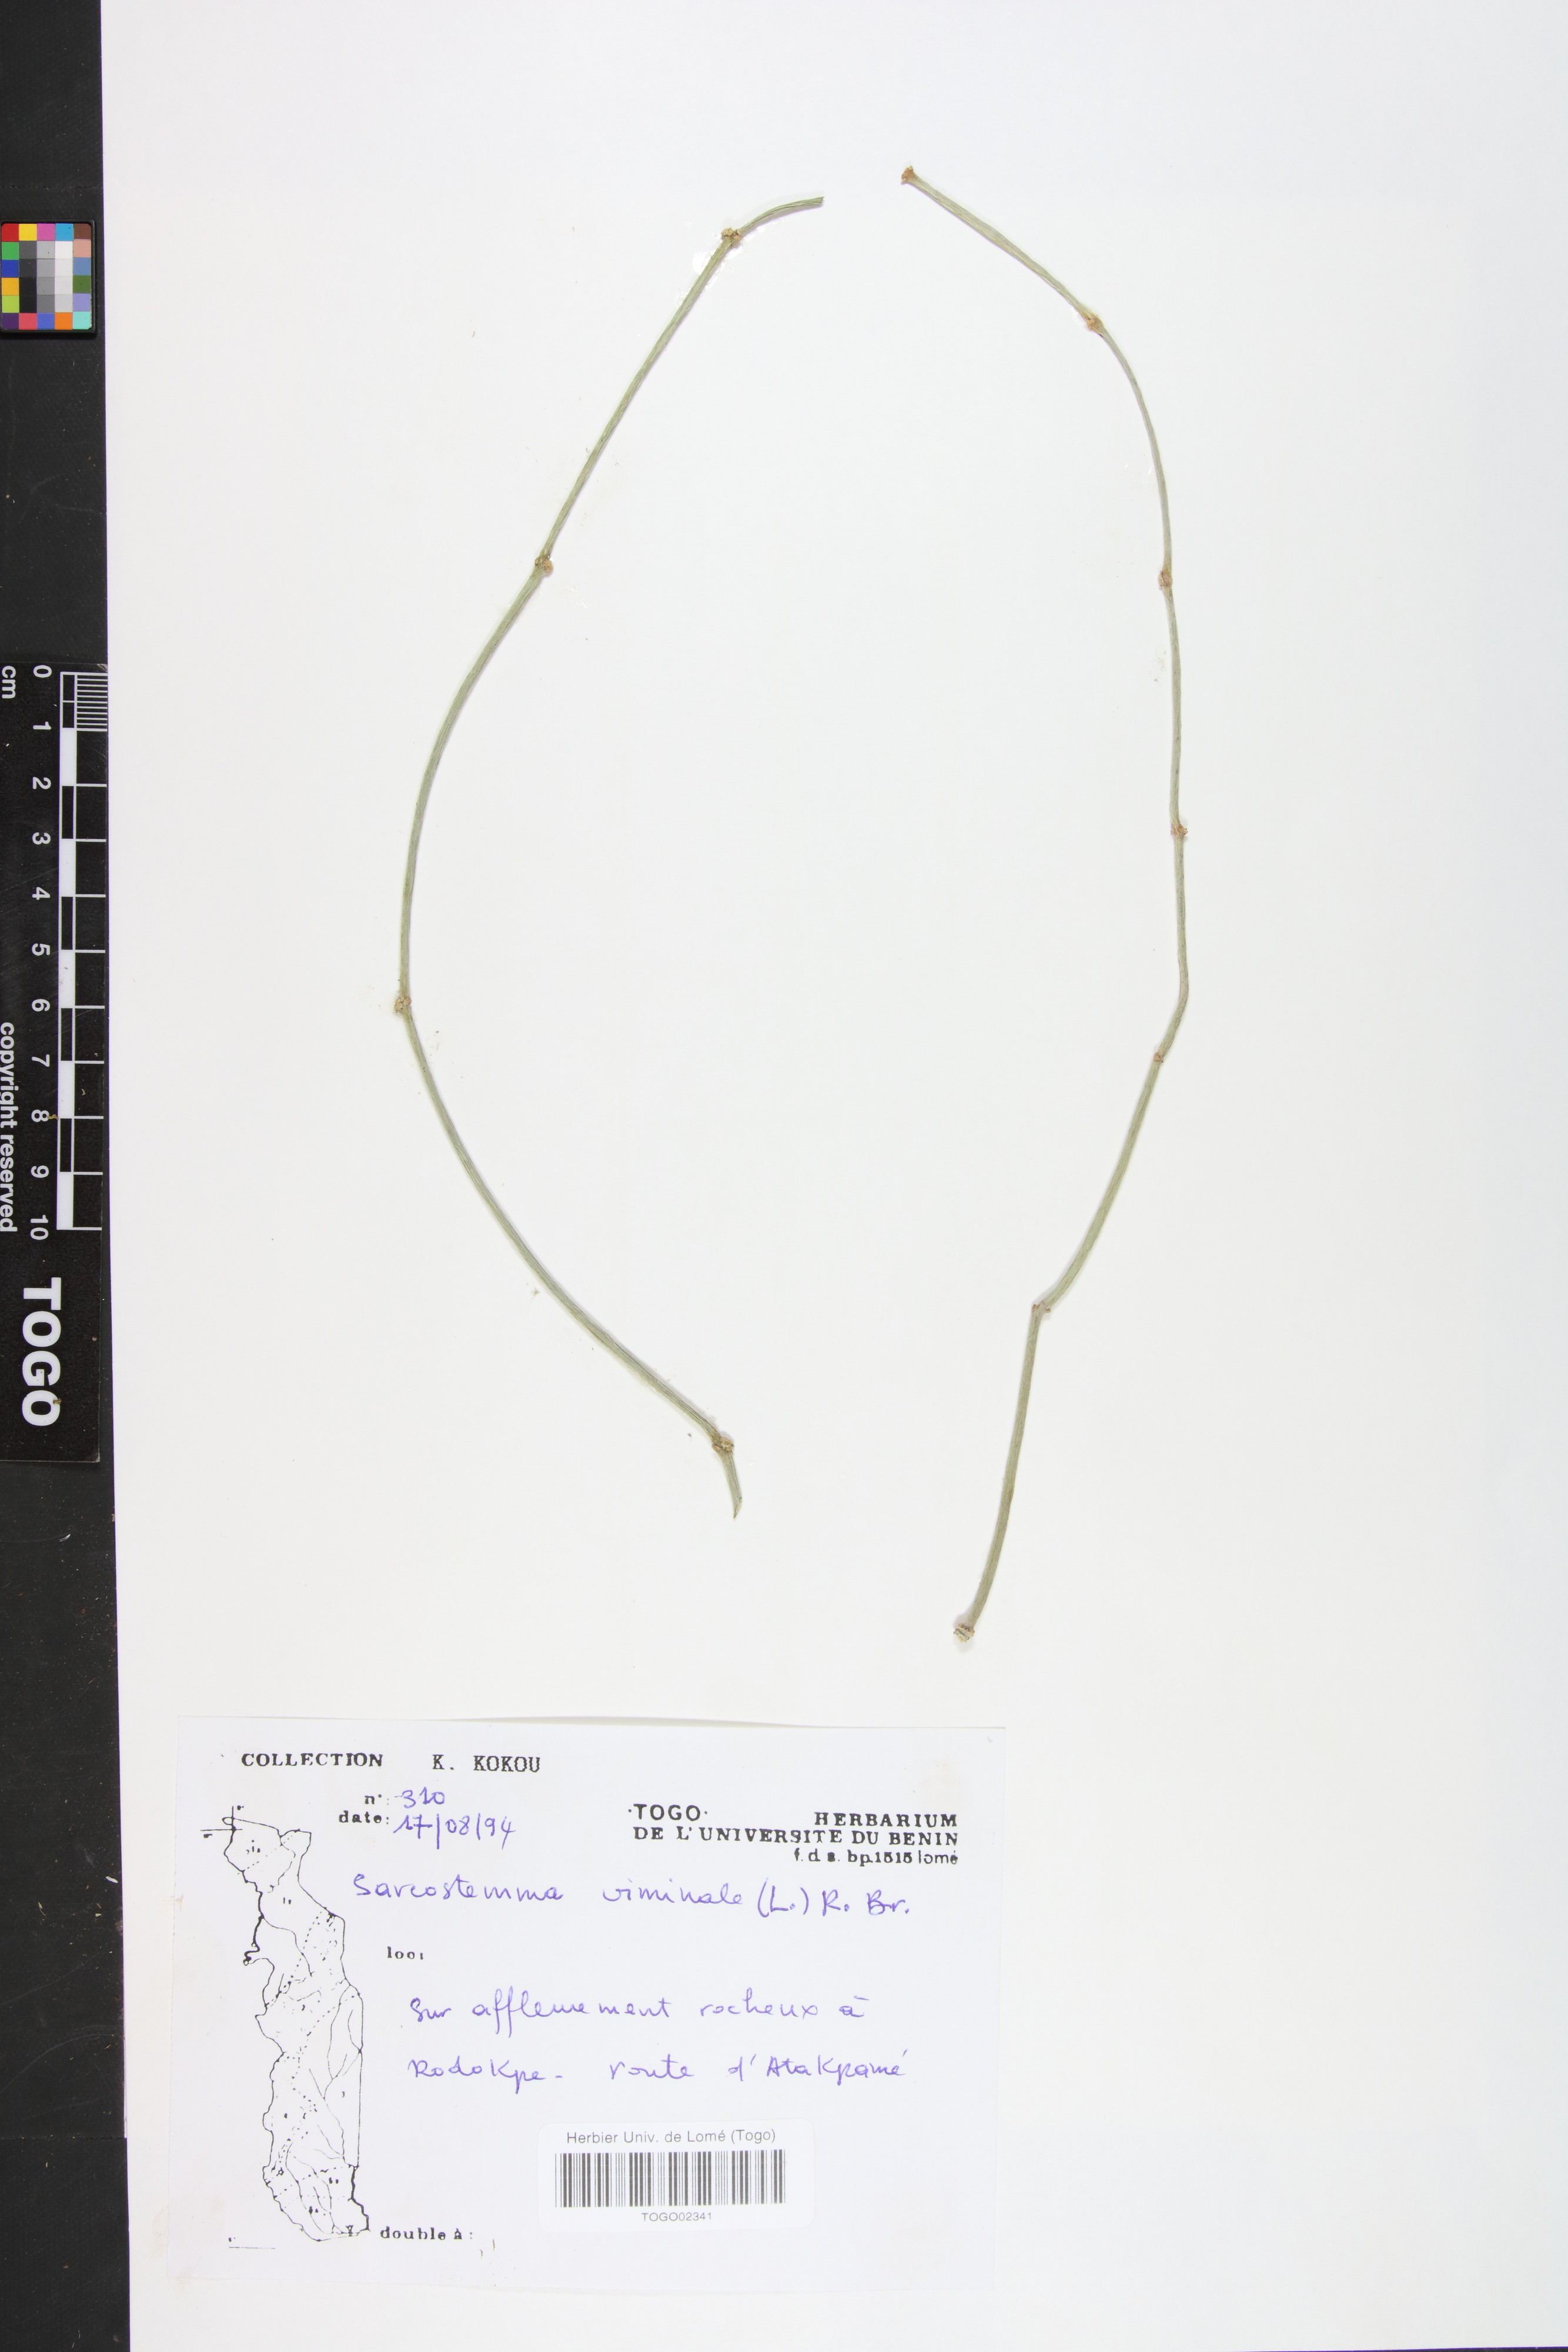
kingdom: Plantae
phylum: Tracheophyta
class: Magnoliopsida
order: Gentianales
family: Apocynaceae
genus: Cynanchum
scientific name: Cynanchum viminale
